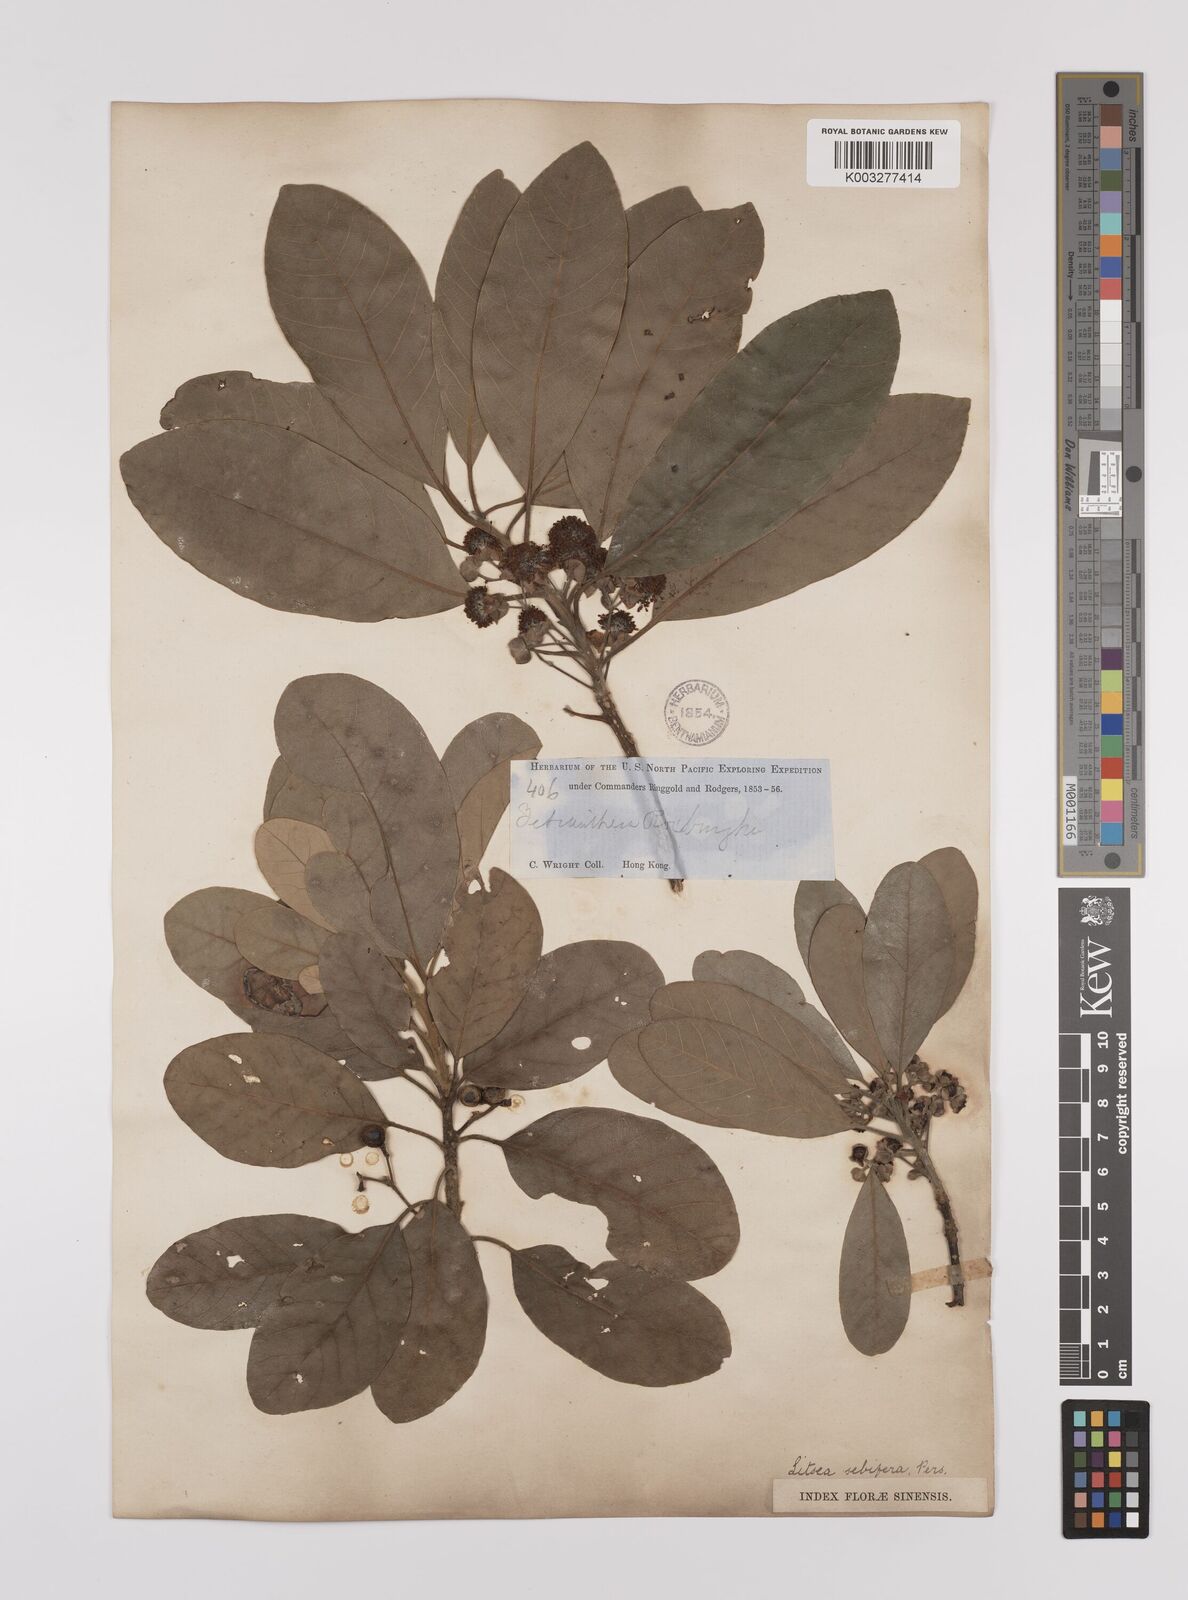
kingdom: Plantae
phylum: Tracheophyta
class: Magnoliopsida
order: Laurales
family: Lauraceae
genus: Litsea
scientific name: Litsea glutinosa
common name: Indian-laurel
